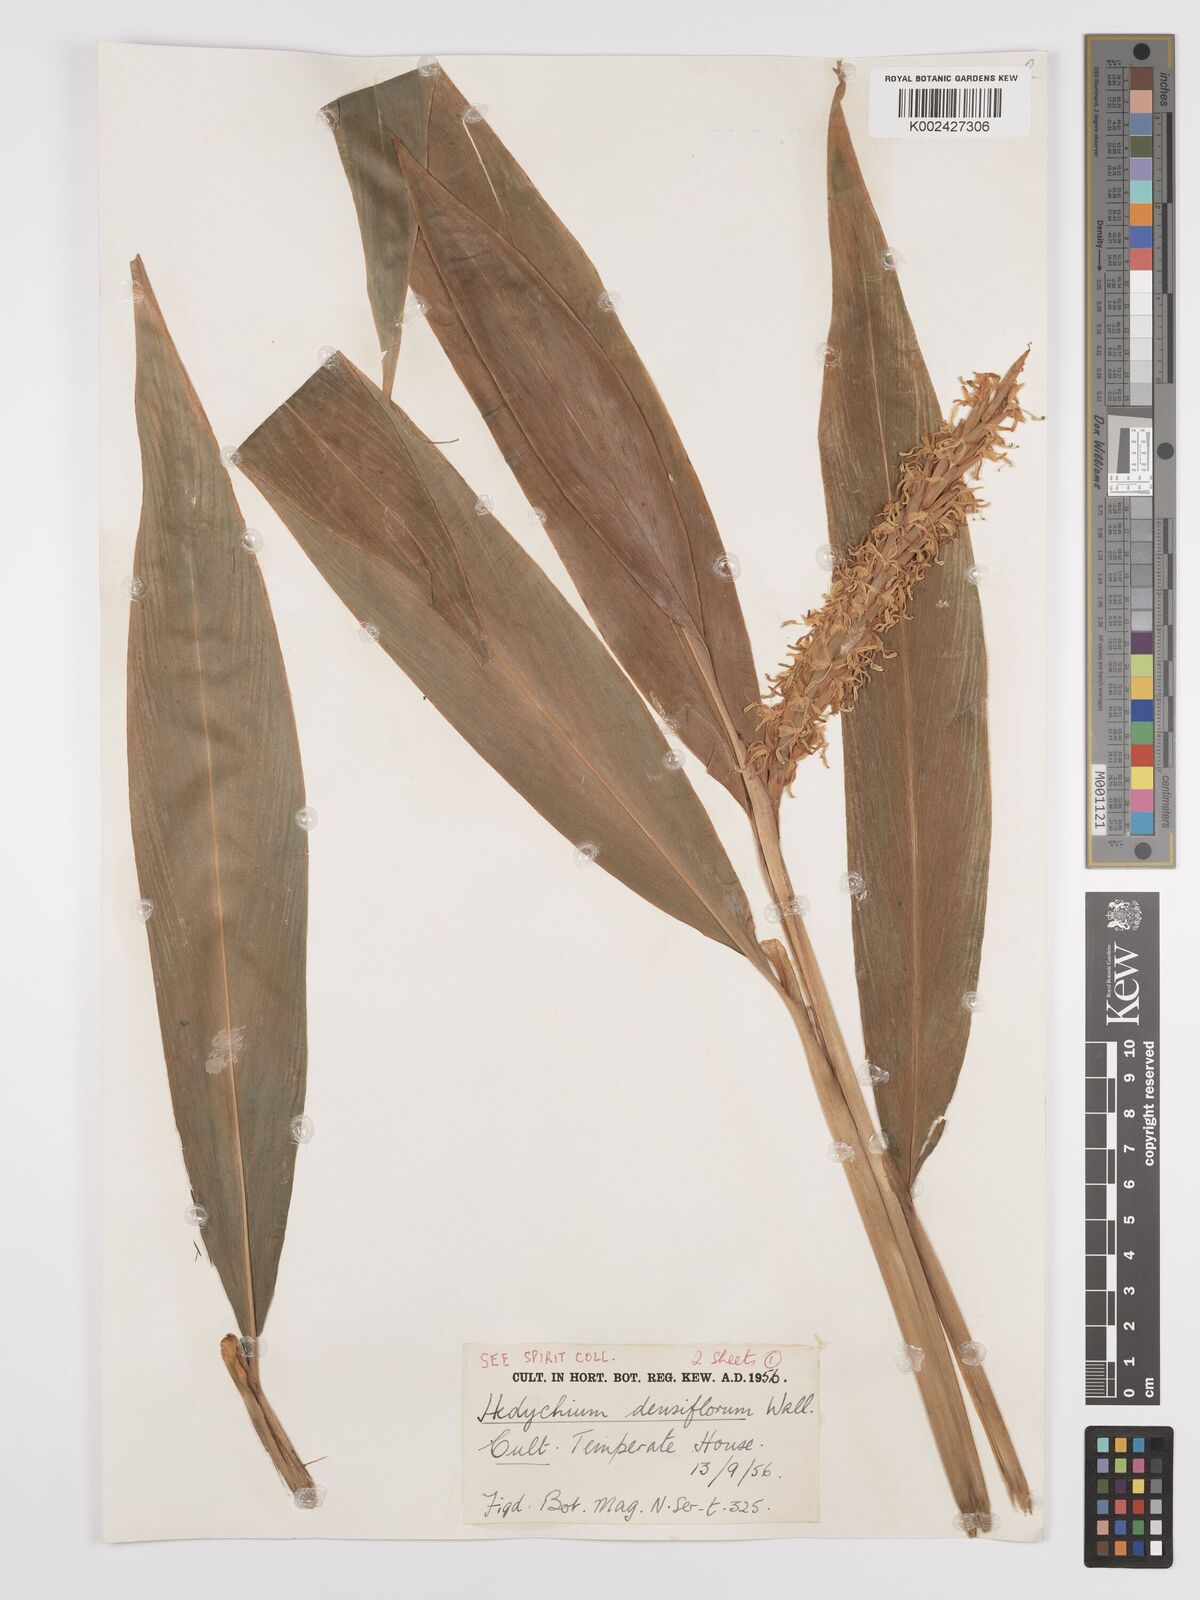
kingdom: Plantae
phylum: Tracheophyta
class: Liliopsida
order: Zingiberales
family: Zingiberaceae
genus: Hedychium
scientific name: Hedychium densiflorum
